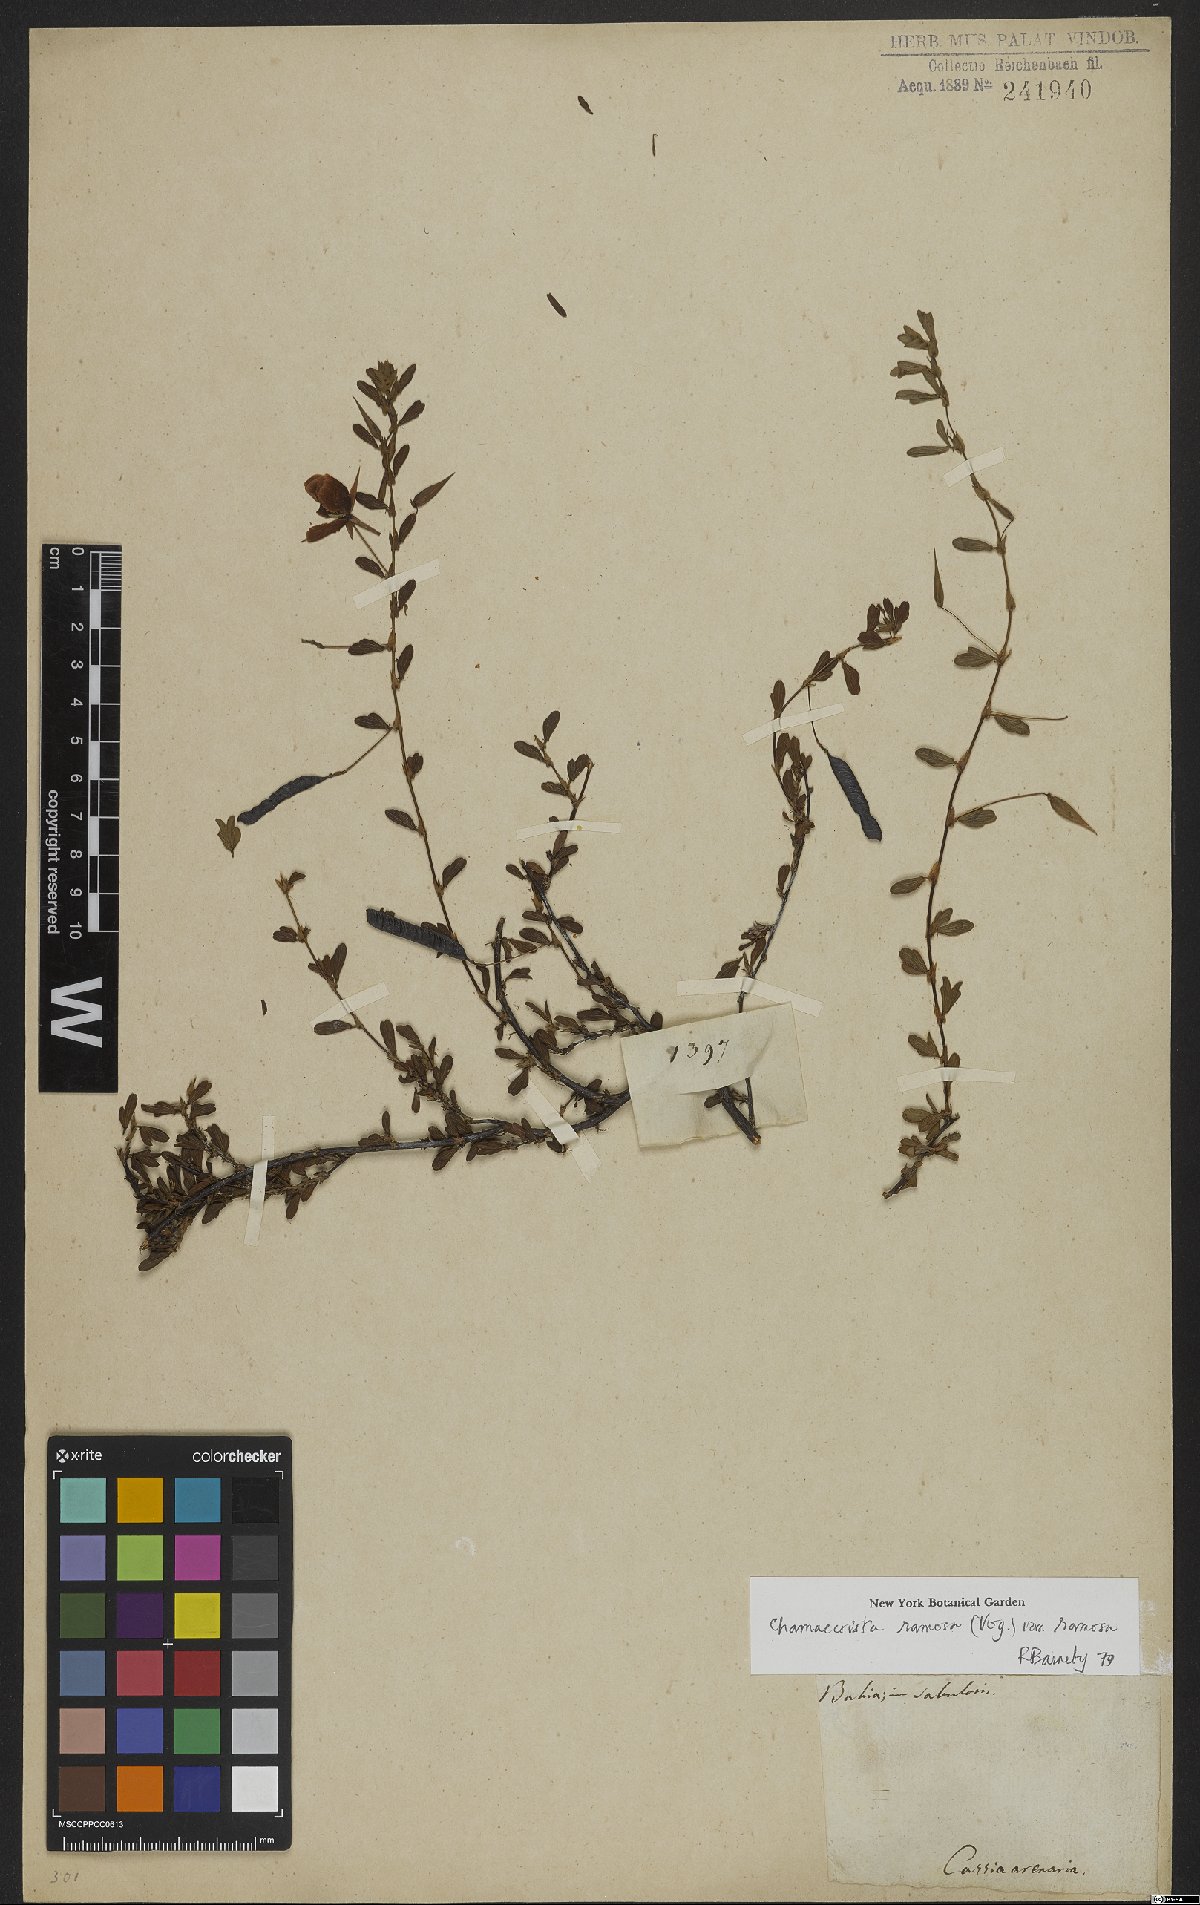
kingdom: Plantae
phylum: Tracheophyta
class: Magnoliopsida
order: Fabales
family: Fabaceae
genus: Chamaecrista
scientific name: Chamaecrista ramosa
